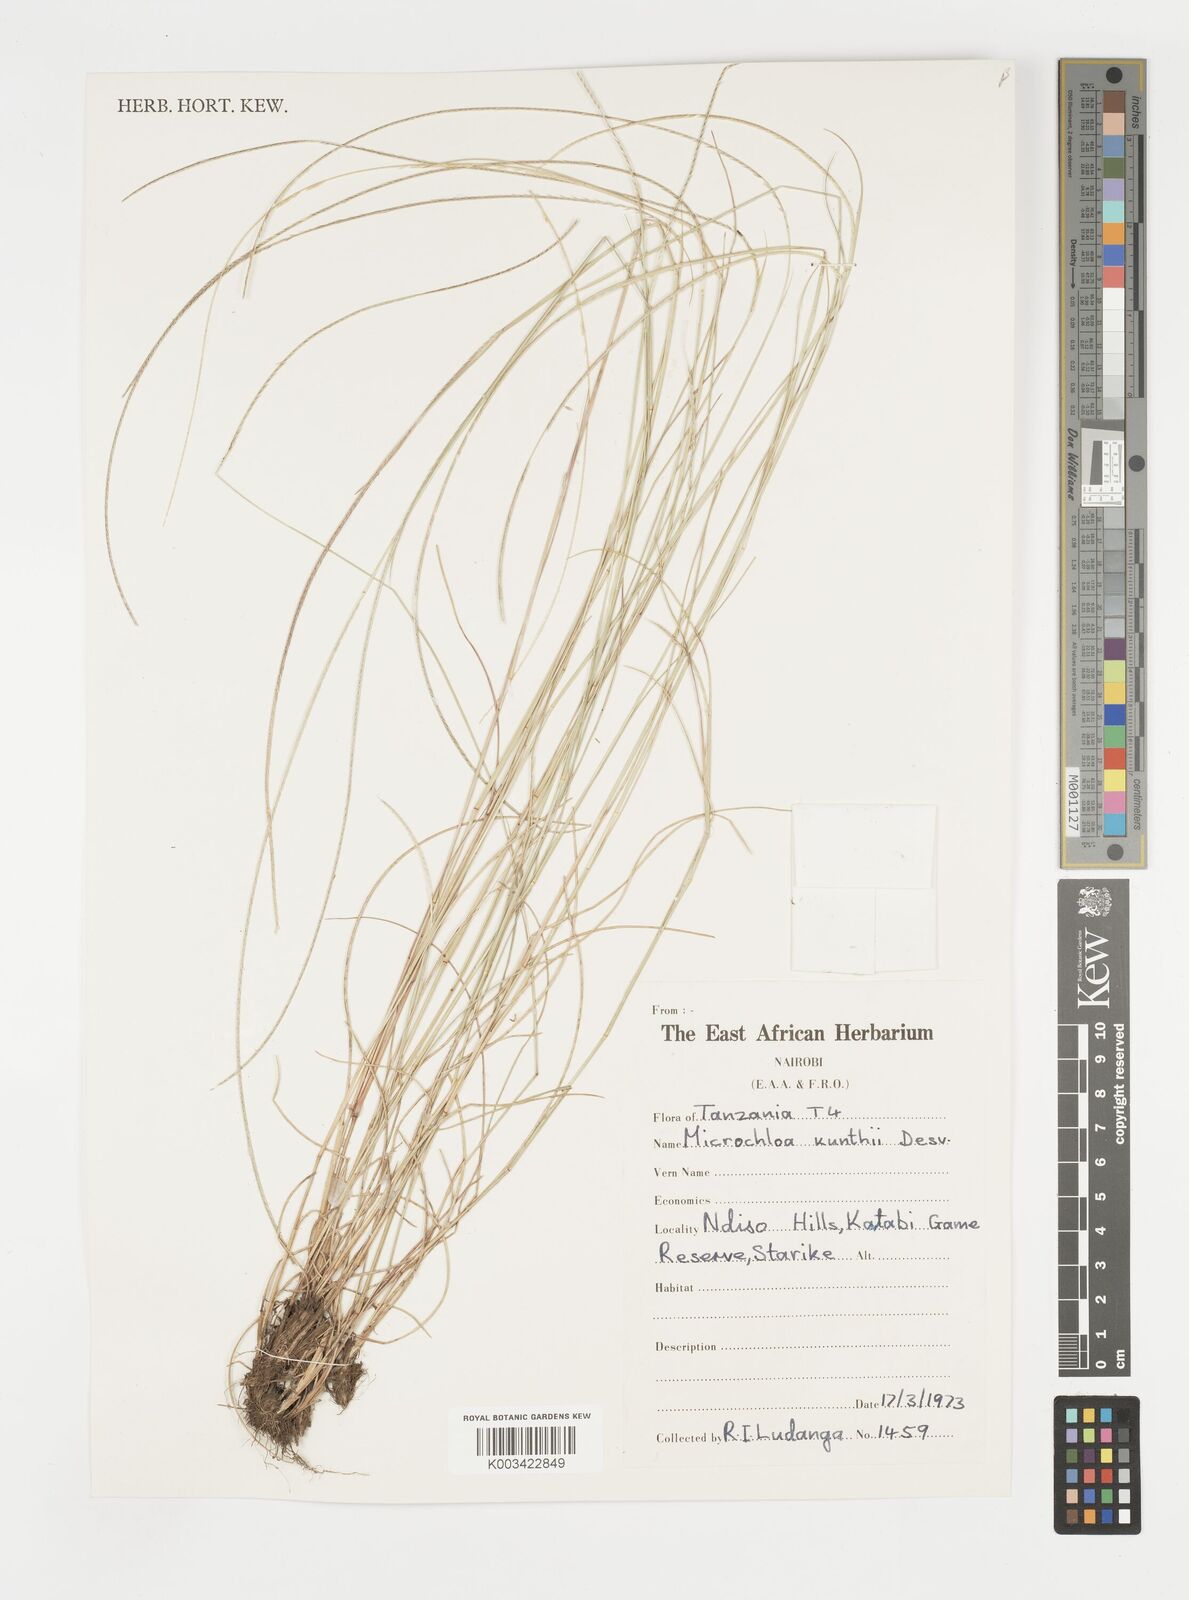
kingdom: Plantae
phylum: Tracheophyta
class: Liliopsida
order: Poales
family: Poaceae
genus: Microchloa
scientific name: Microchloa kunthii
